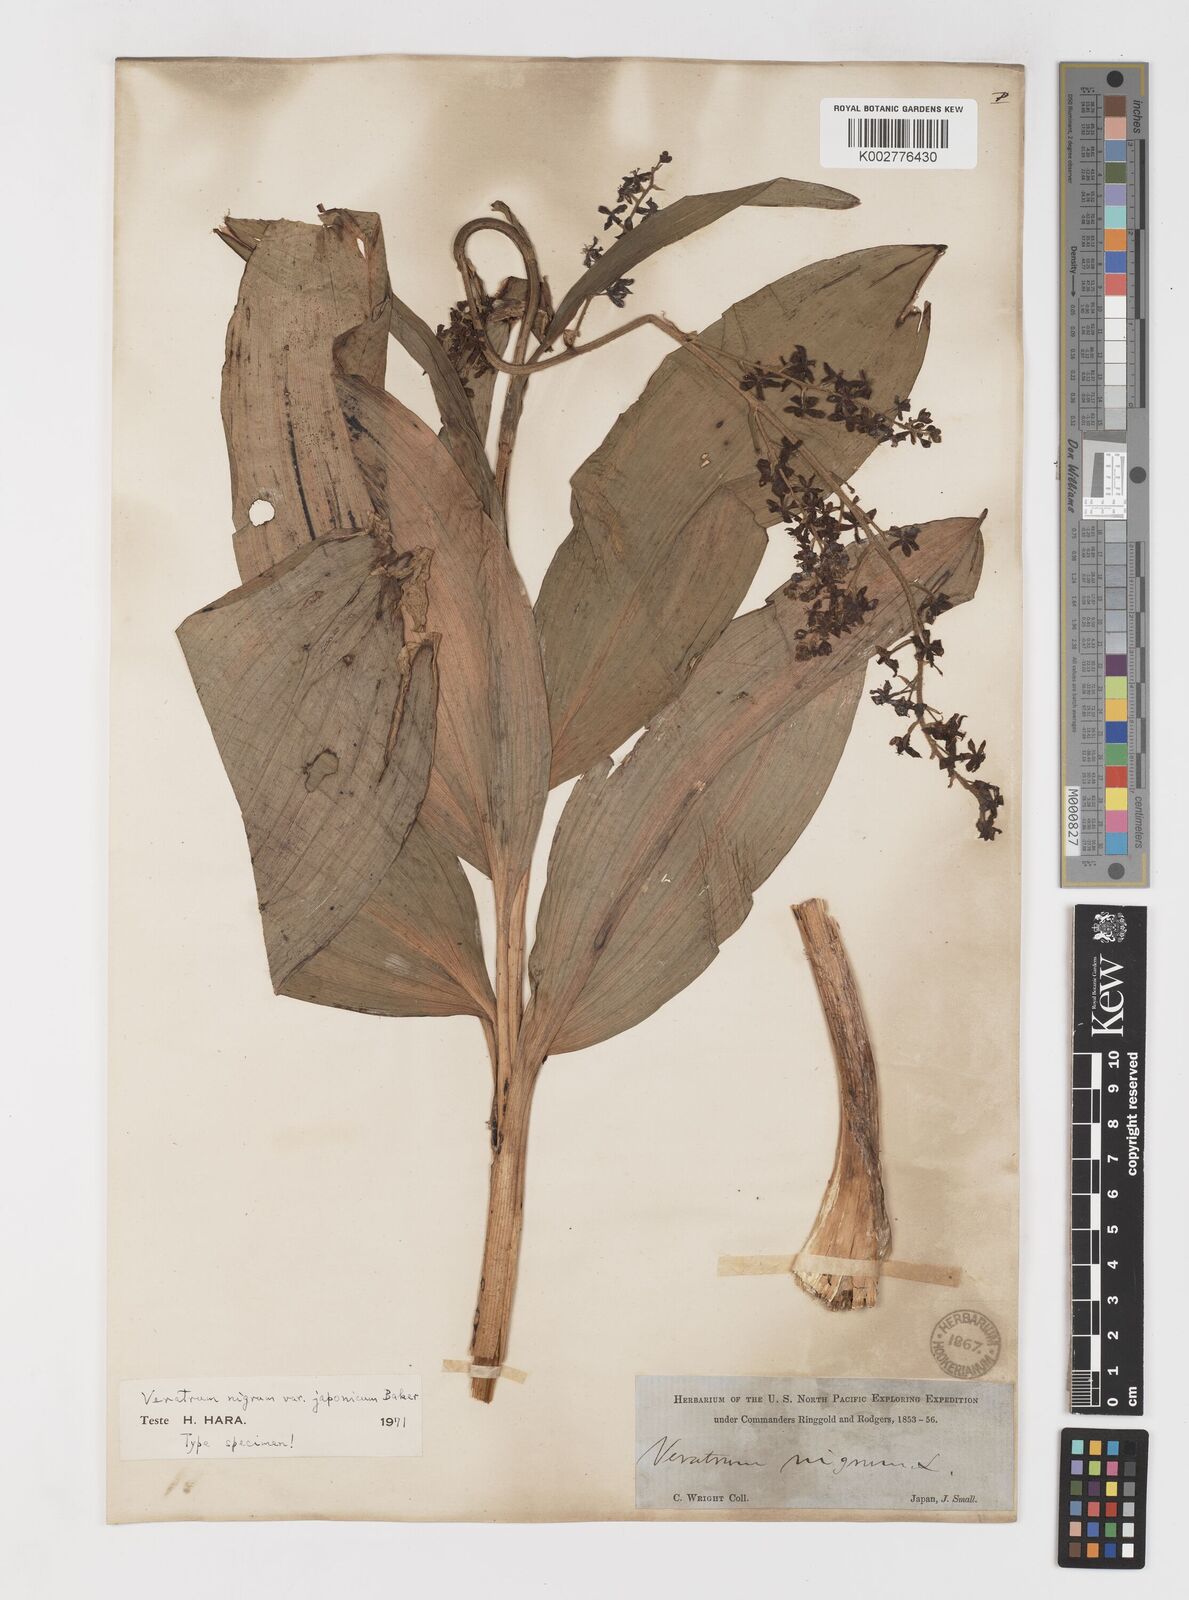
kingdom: Plantae
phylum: Tracheophyta
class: Liliopsida
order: Liliales
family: Melanthiaceae
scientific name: Melanthiaceae
